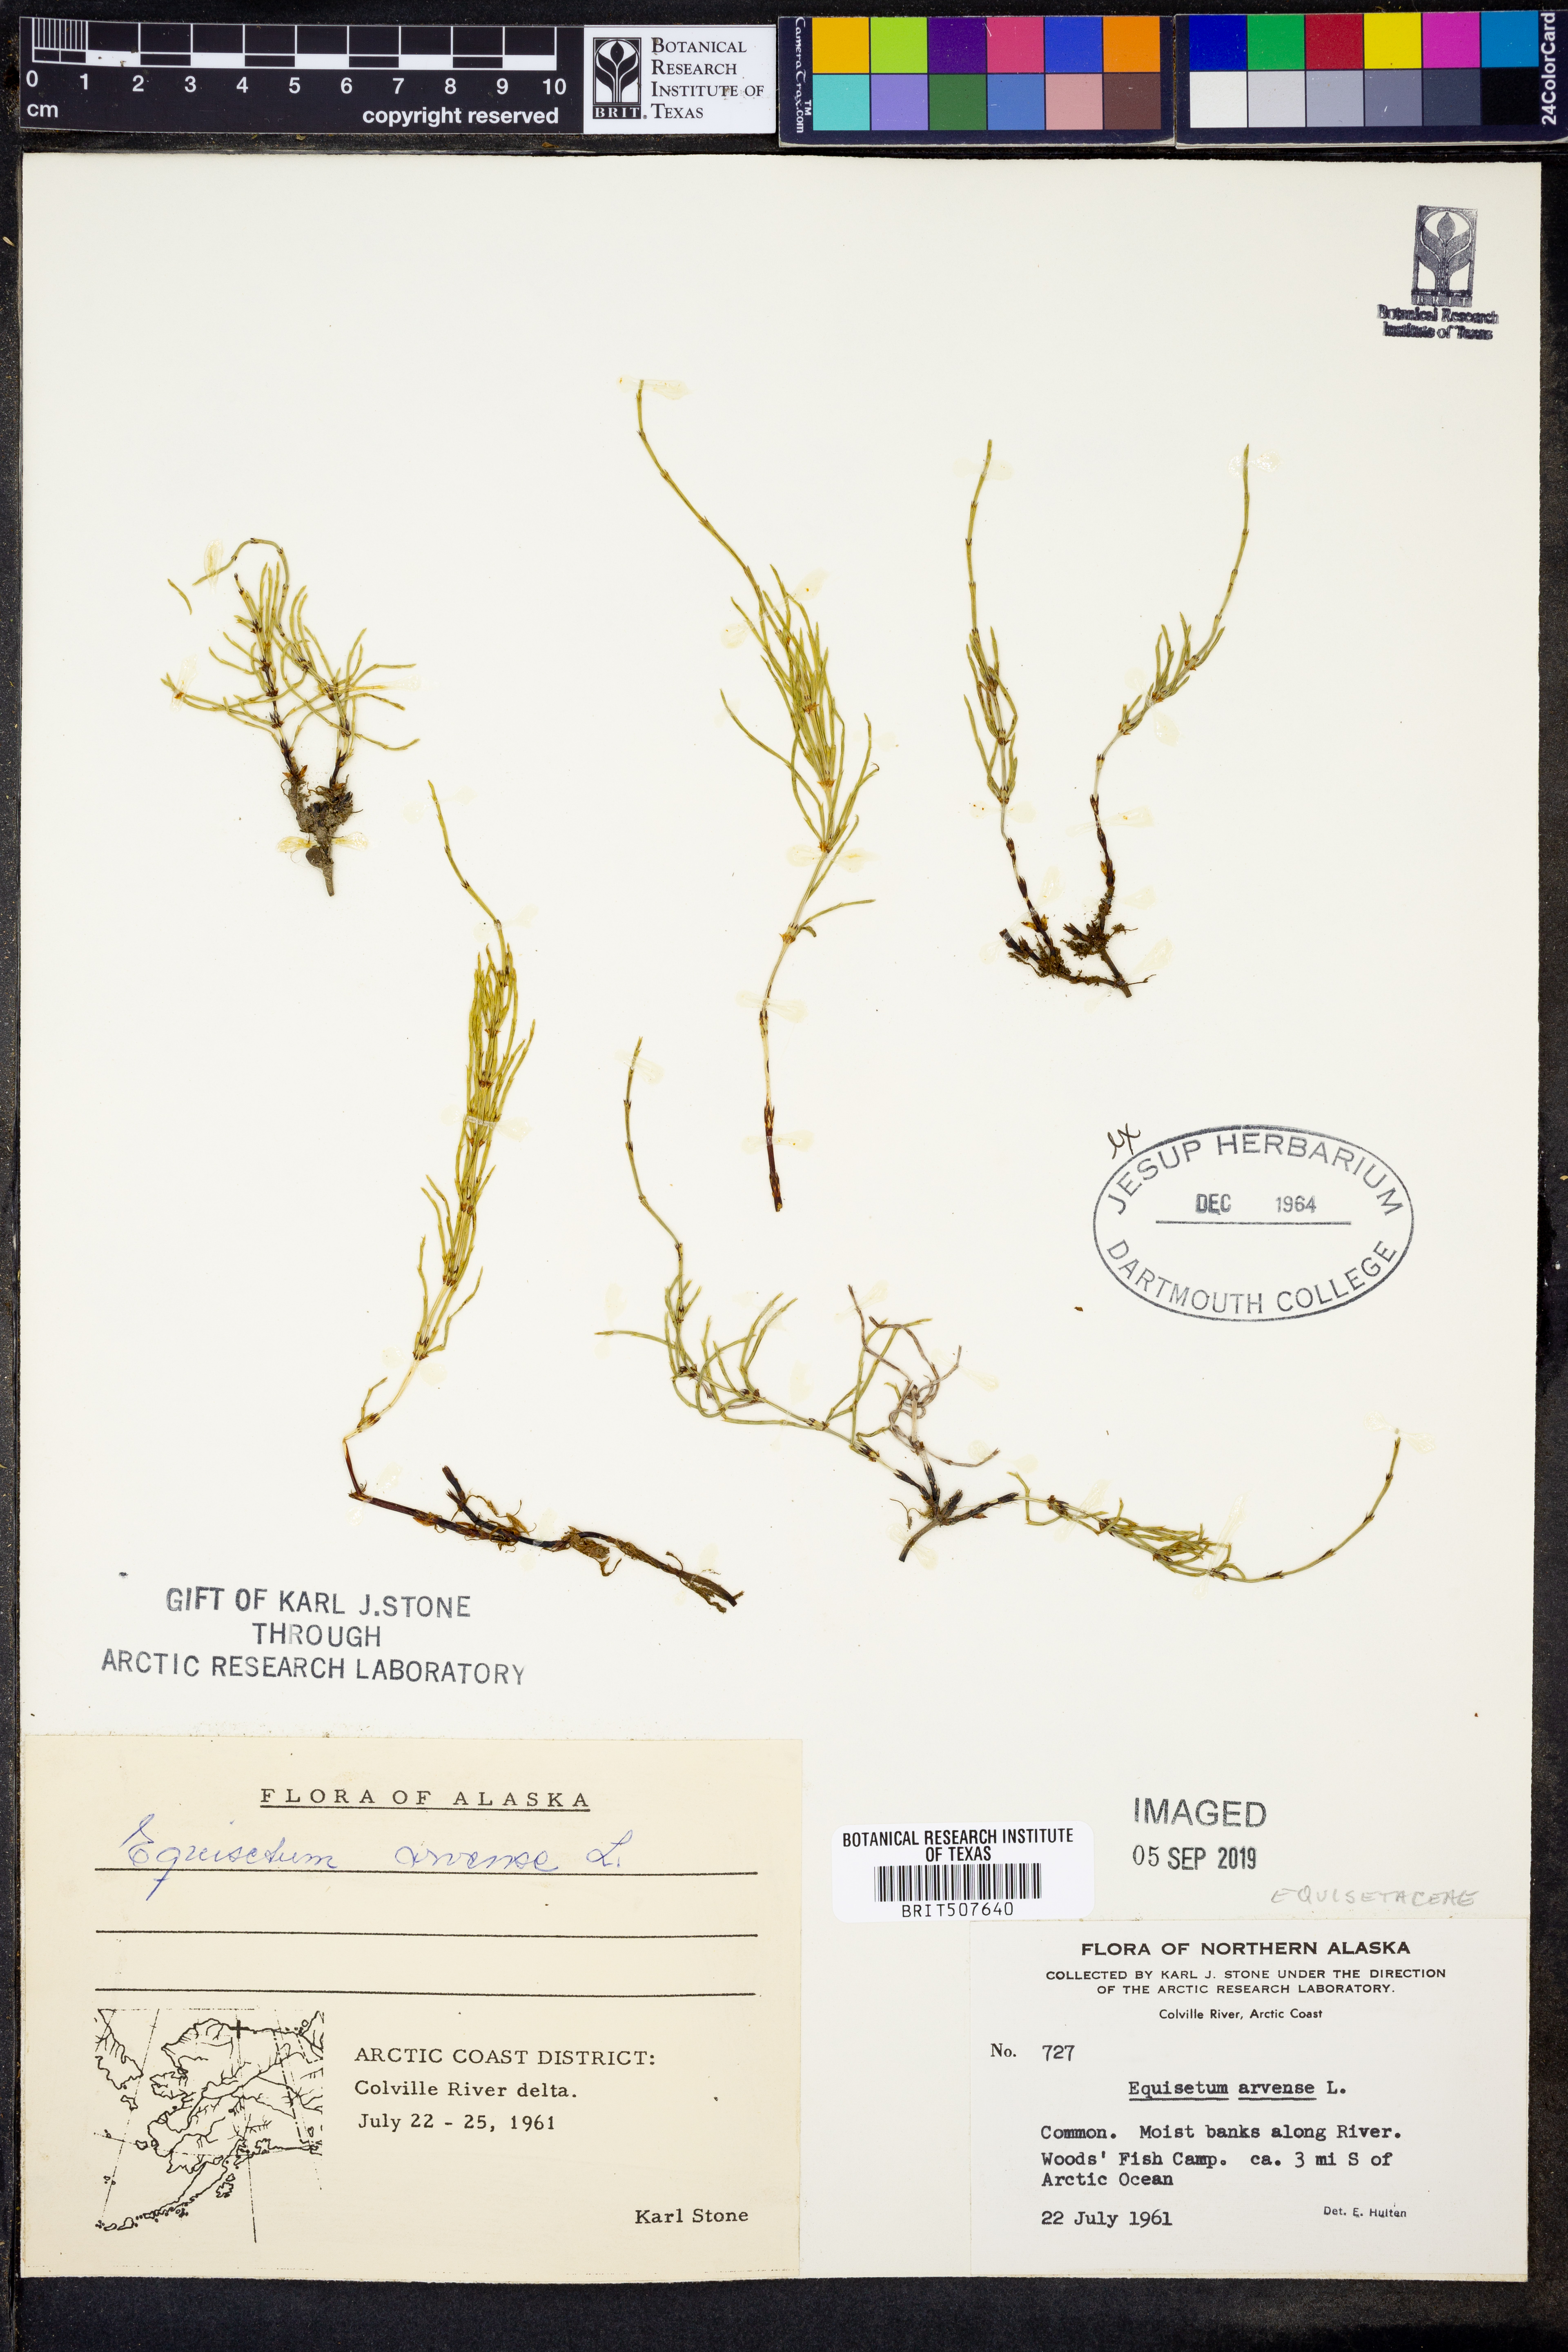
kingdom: Plantae
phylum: Tracheophyta
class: Polypodiopsida
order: Equisetales
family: Equisetaceae
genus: Equisetum
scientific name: Equisetum arvense
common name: Field horsetail
